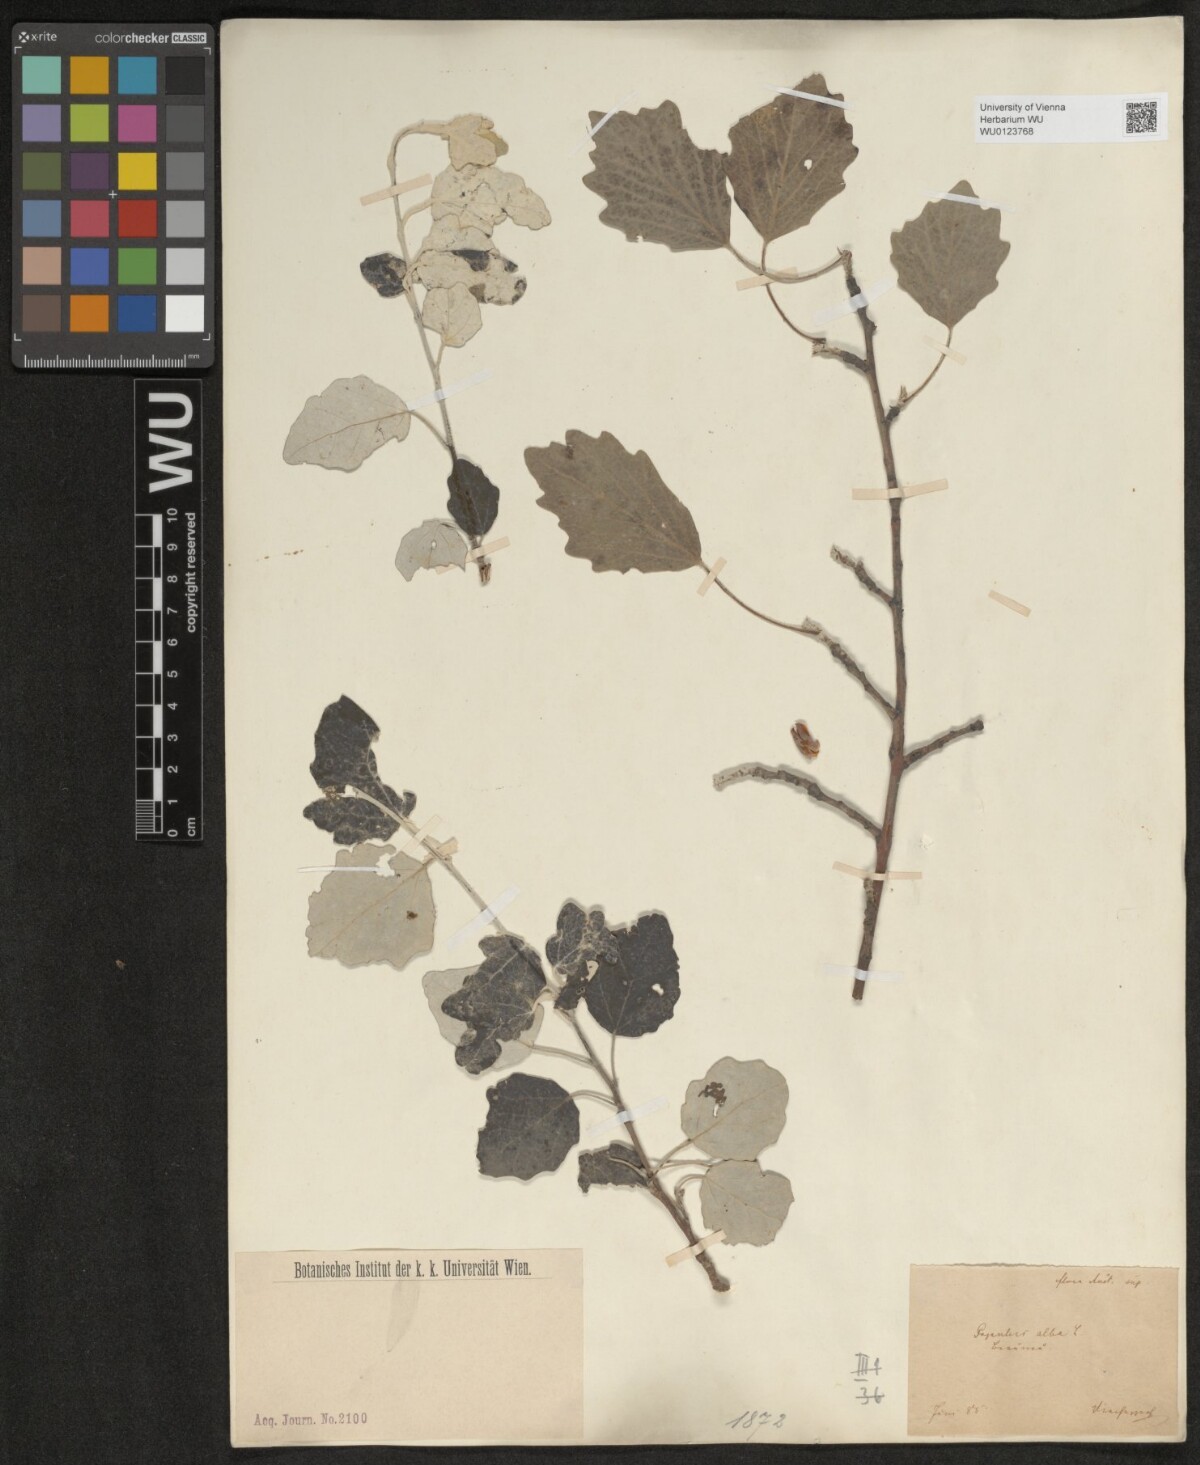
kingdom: Plantae
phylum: Tracheophyta
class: Magnoliopsida
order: Malpighiales
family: Salicaceae
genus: Populus
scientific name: Populus alba
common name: White poplar
